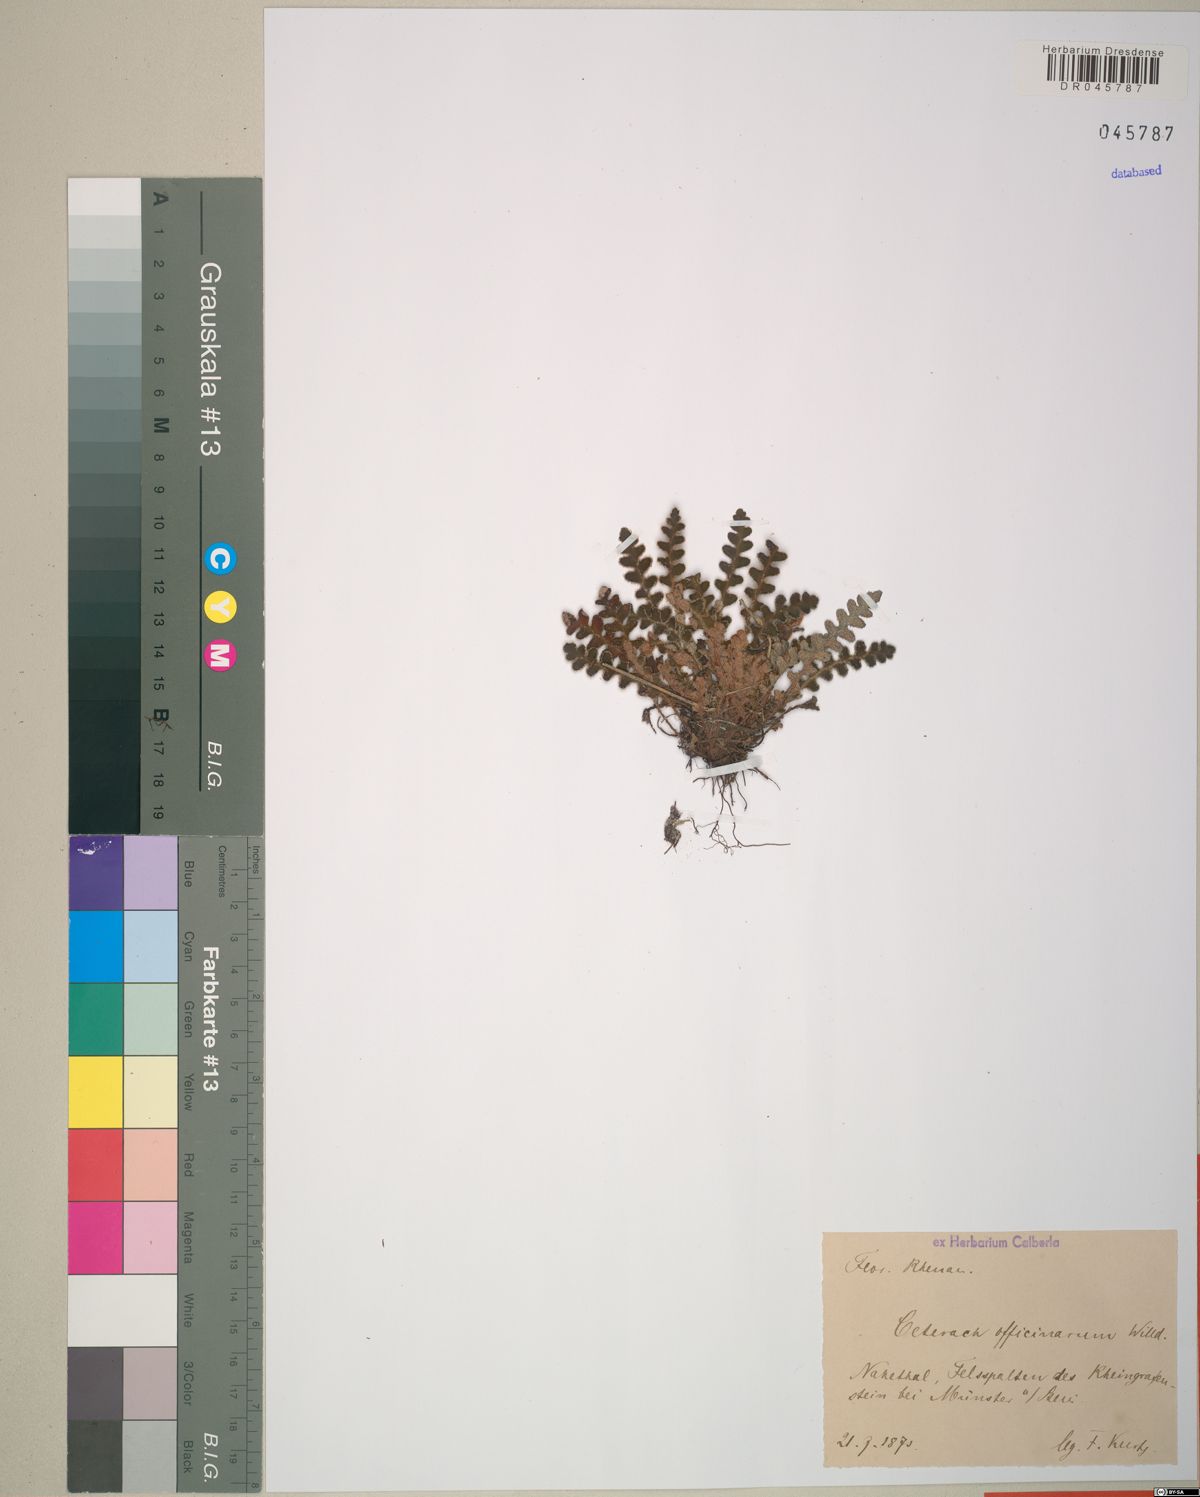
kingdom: Plantae
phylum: Tracheophyta
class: Polypodiopsida
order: Polypodiales
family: Aspleniaceae
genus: Asplenium
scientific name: Asplenium ceterach
